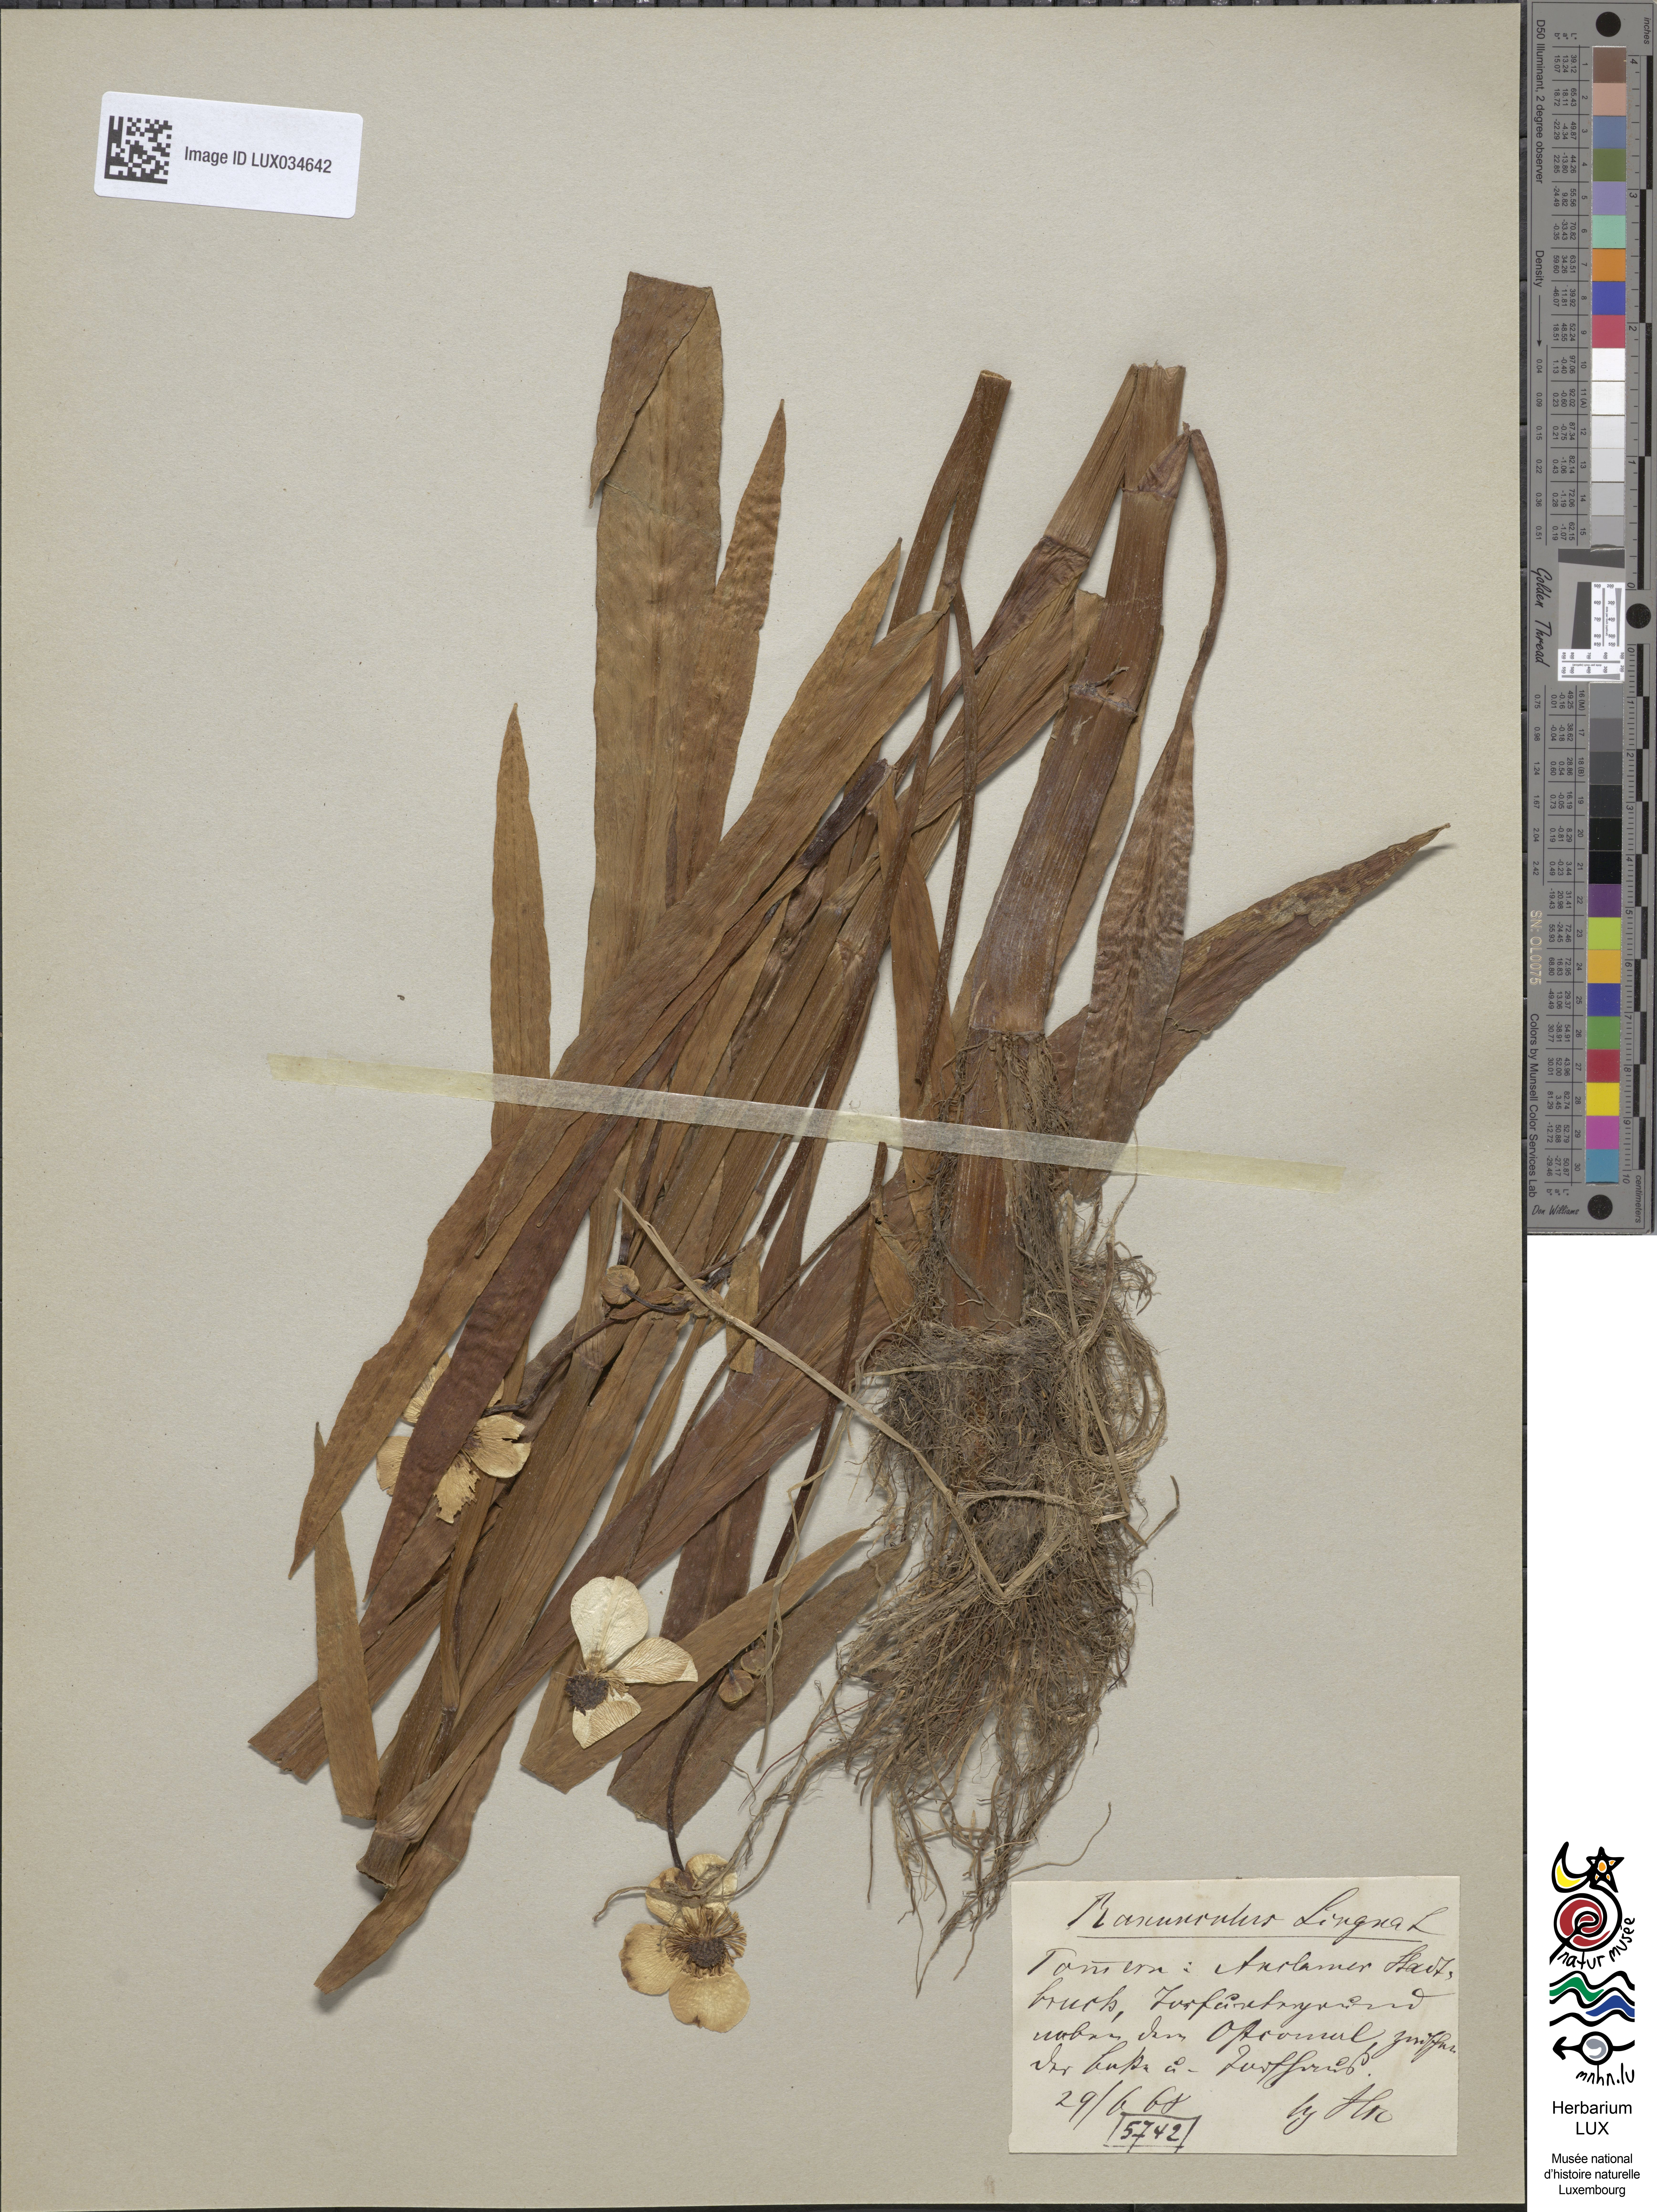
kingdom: Plantae
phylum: Tracheophyta
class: Magnoliopsida
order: Ranunculales
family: Ranunculaceae
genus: Ranunculus
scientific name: Ranunculus lingua
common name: Greater spearwort
